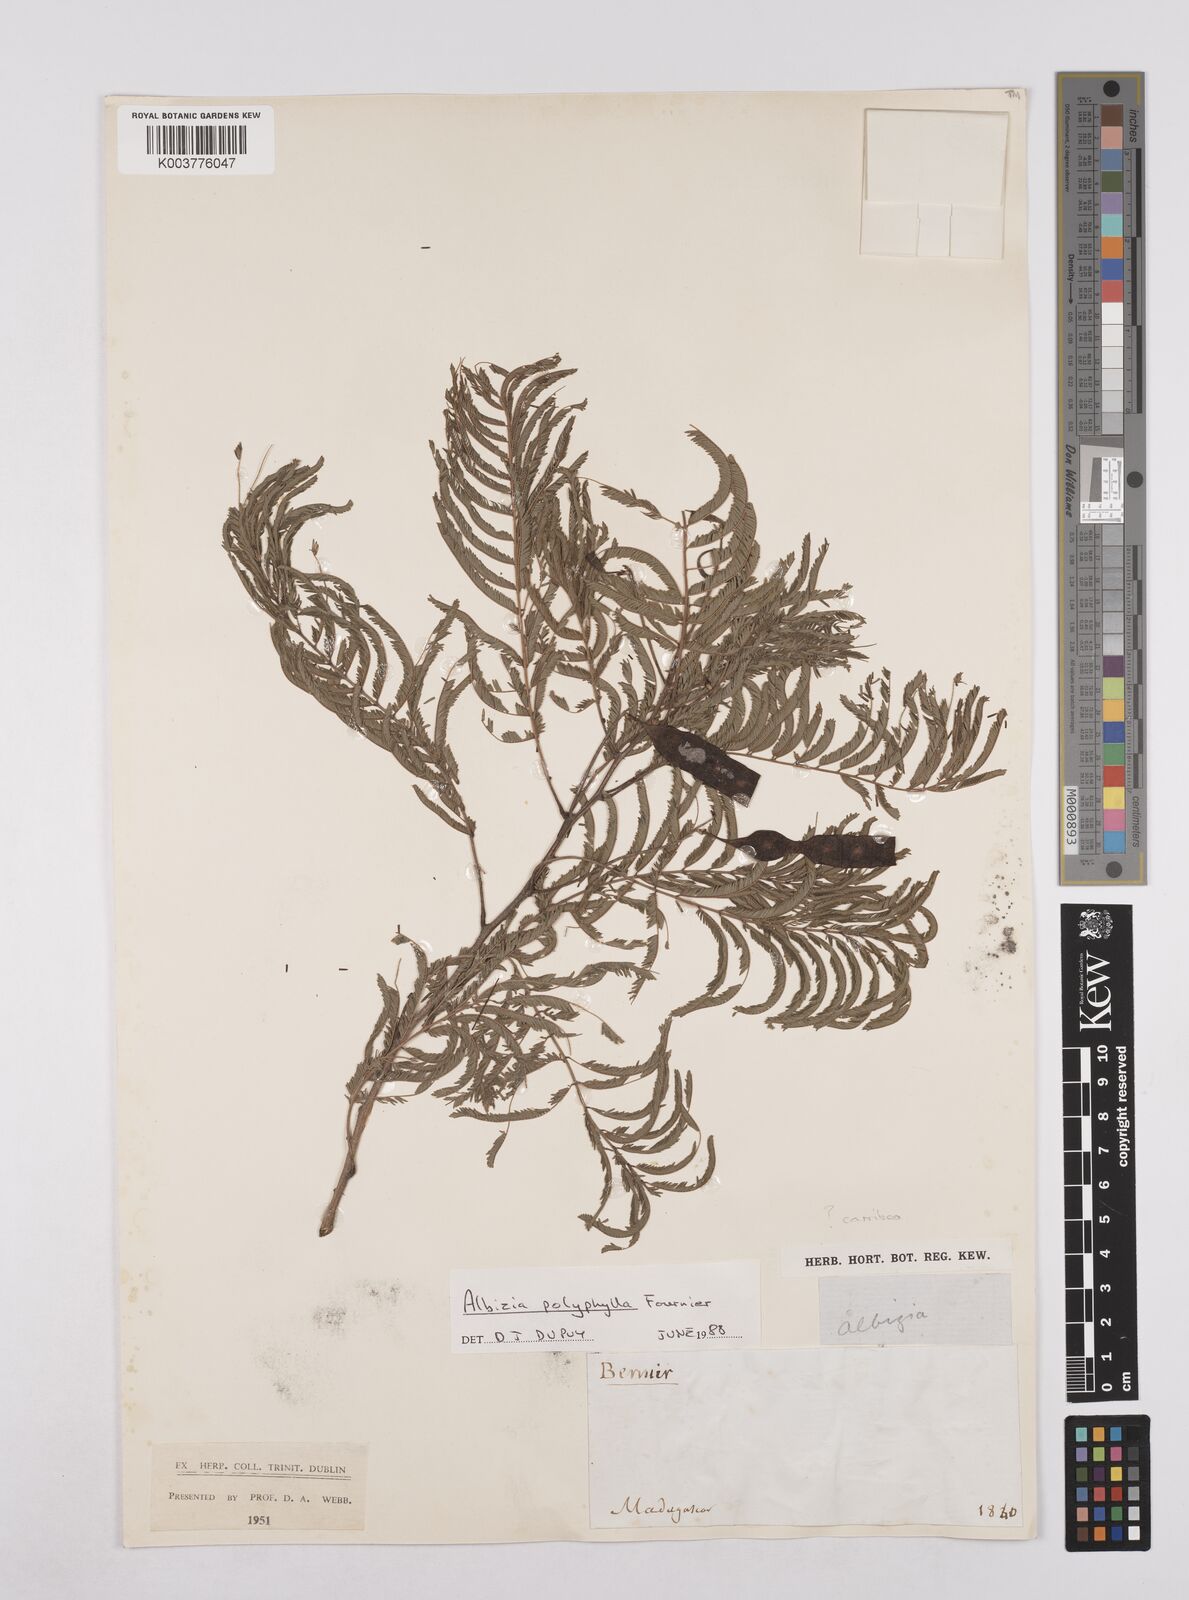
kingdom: Plantae
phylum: Tracheophyta
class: Magnoliopsida
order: Fabales
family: Fabaceae
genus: Albizia
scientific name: Albizia polyphylla
